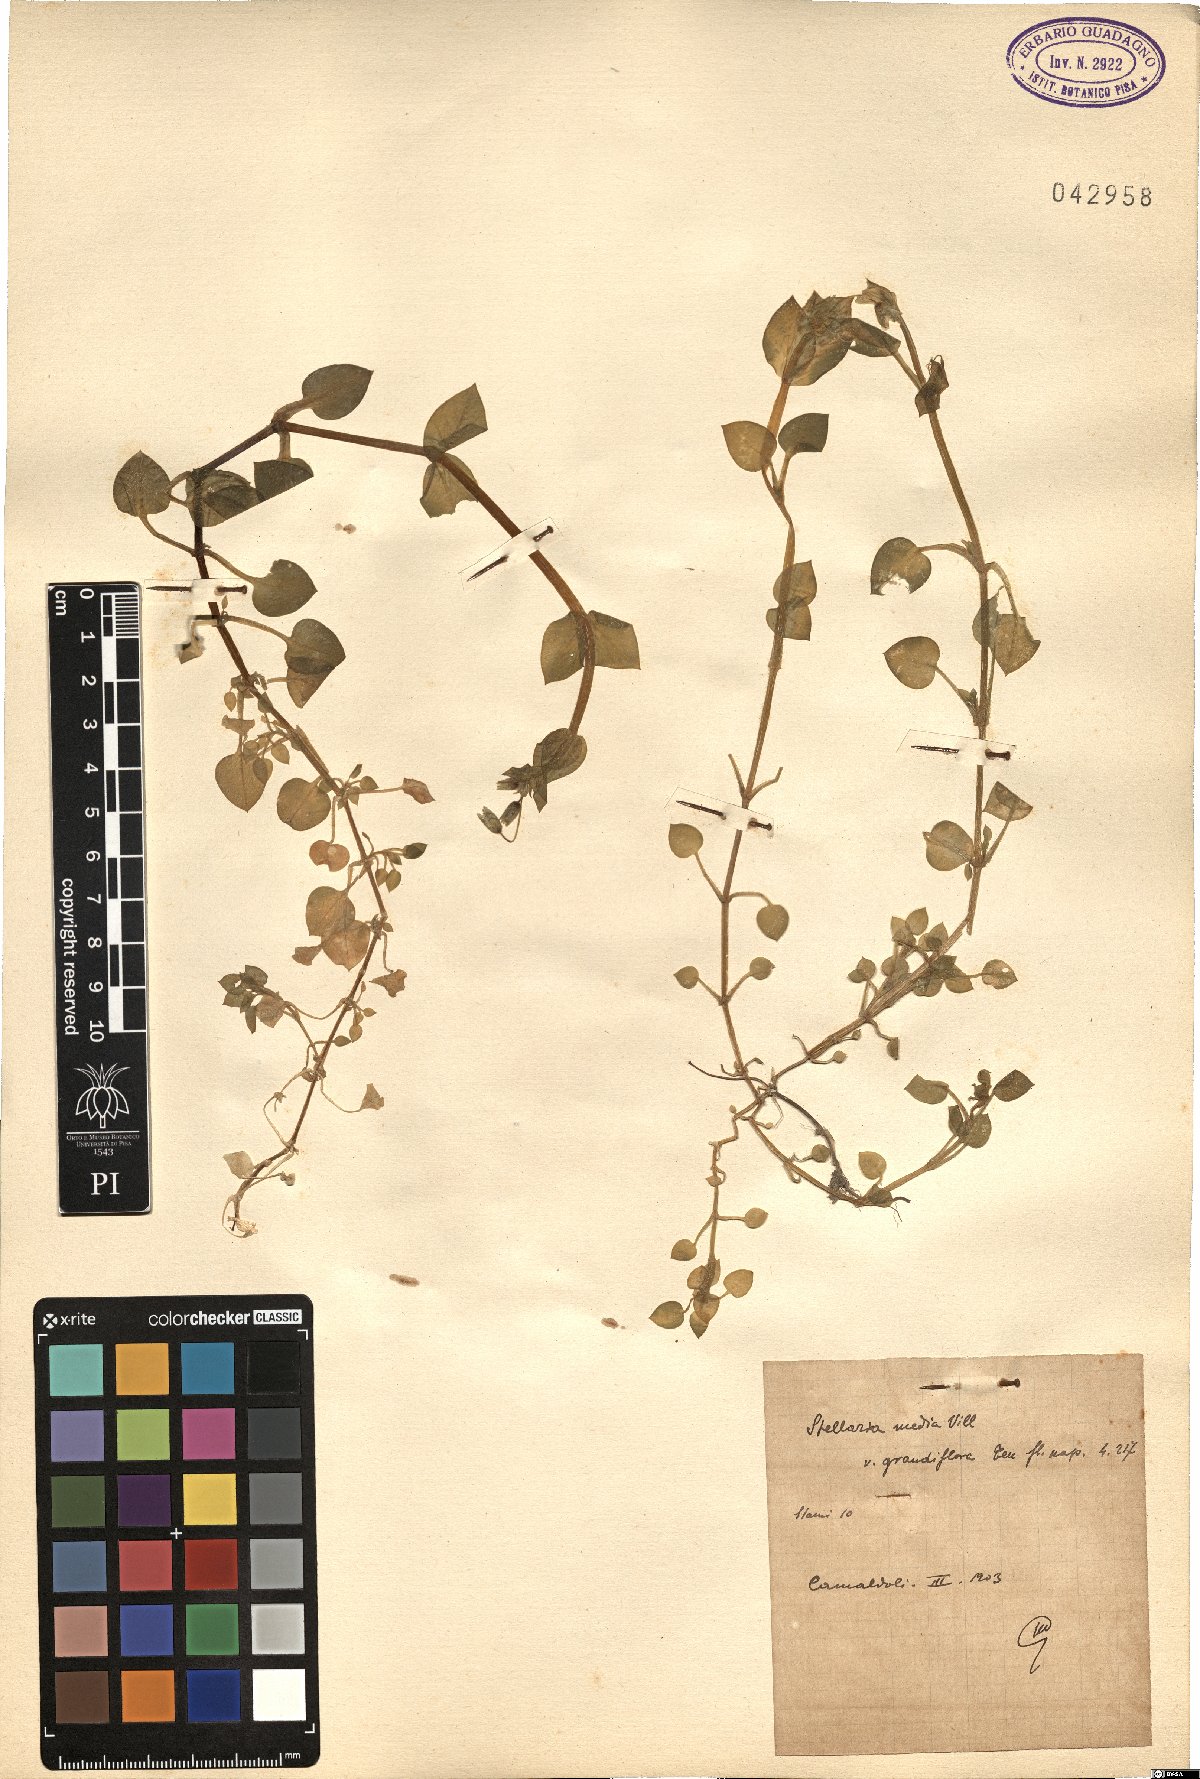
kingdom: Plantae
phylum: Tracheophyta
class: Magnoliopsida
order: Caryophyllales
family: Caryophyllaceae
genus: Stellaria
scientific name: Stellaria media
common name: Common chickweed
